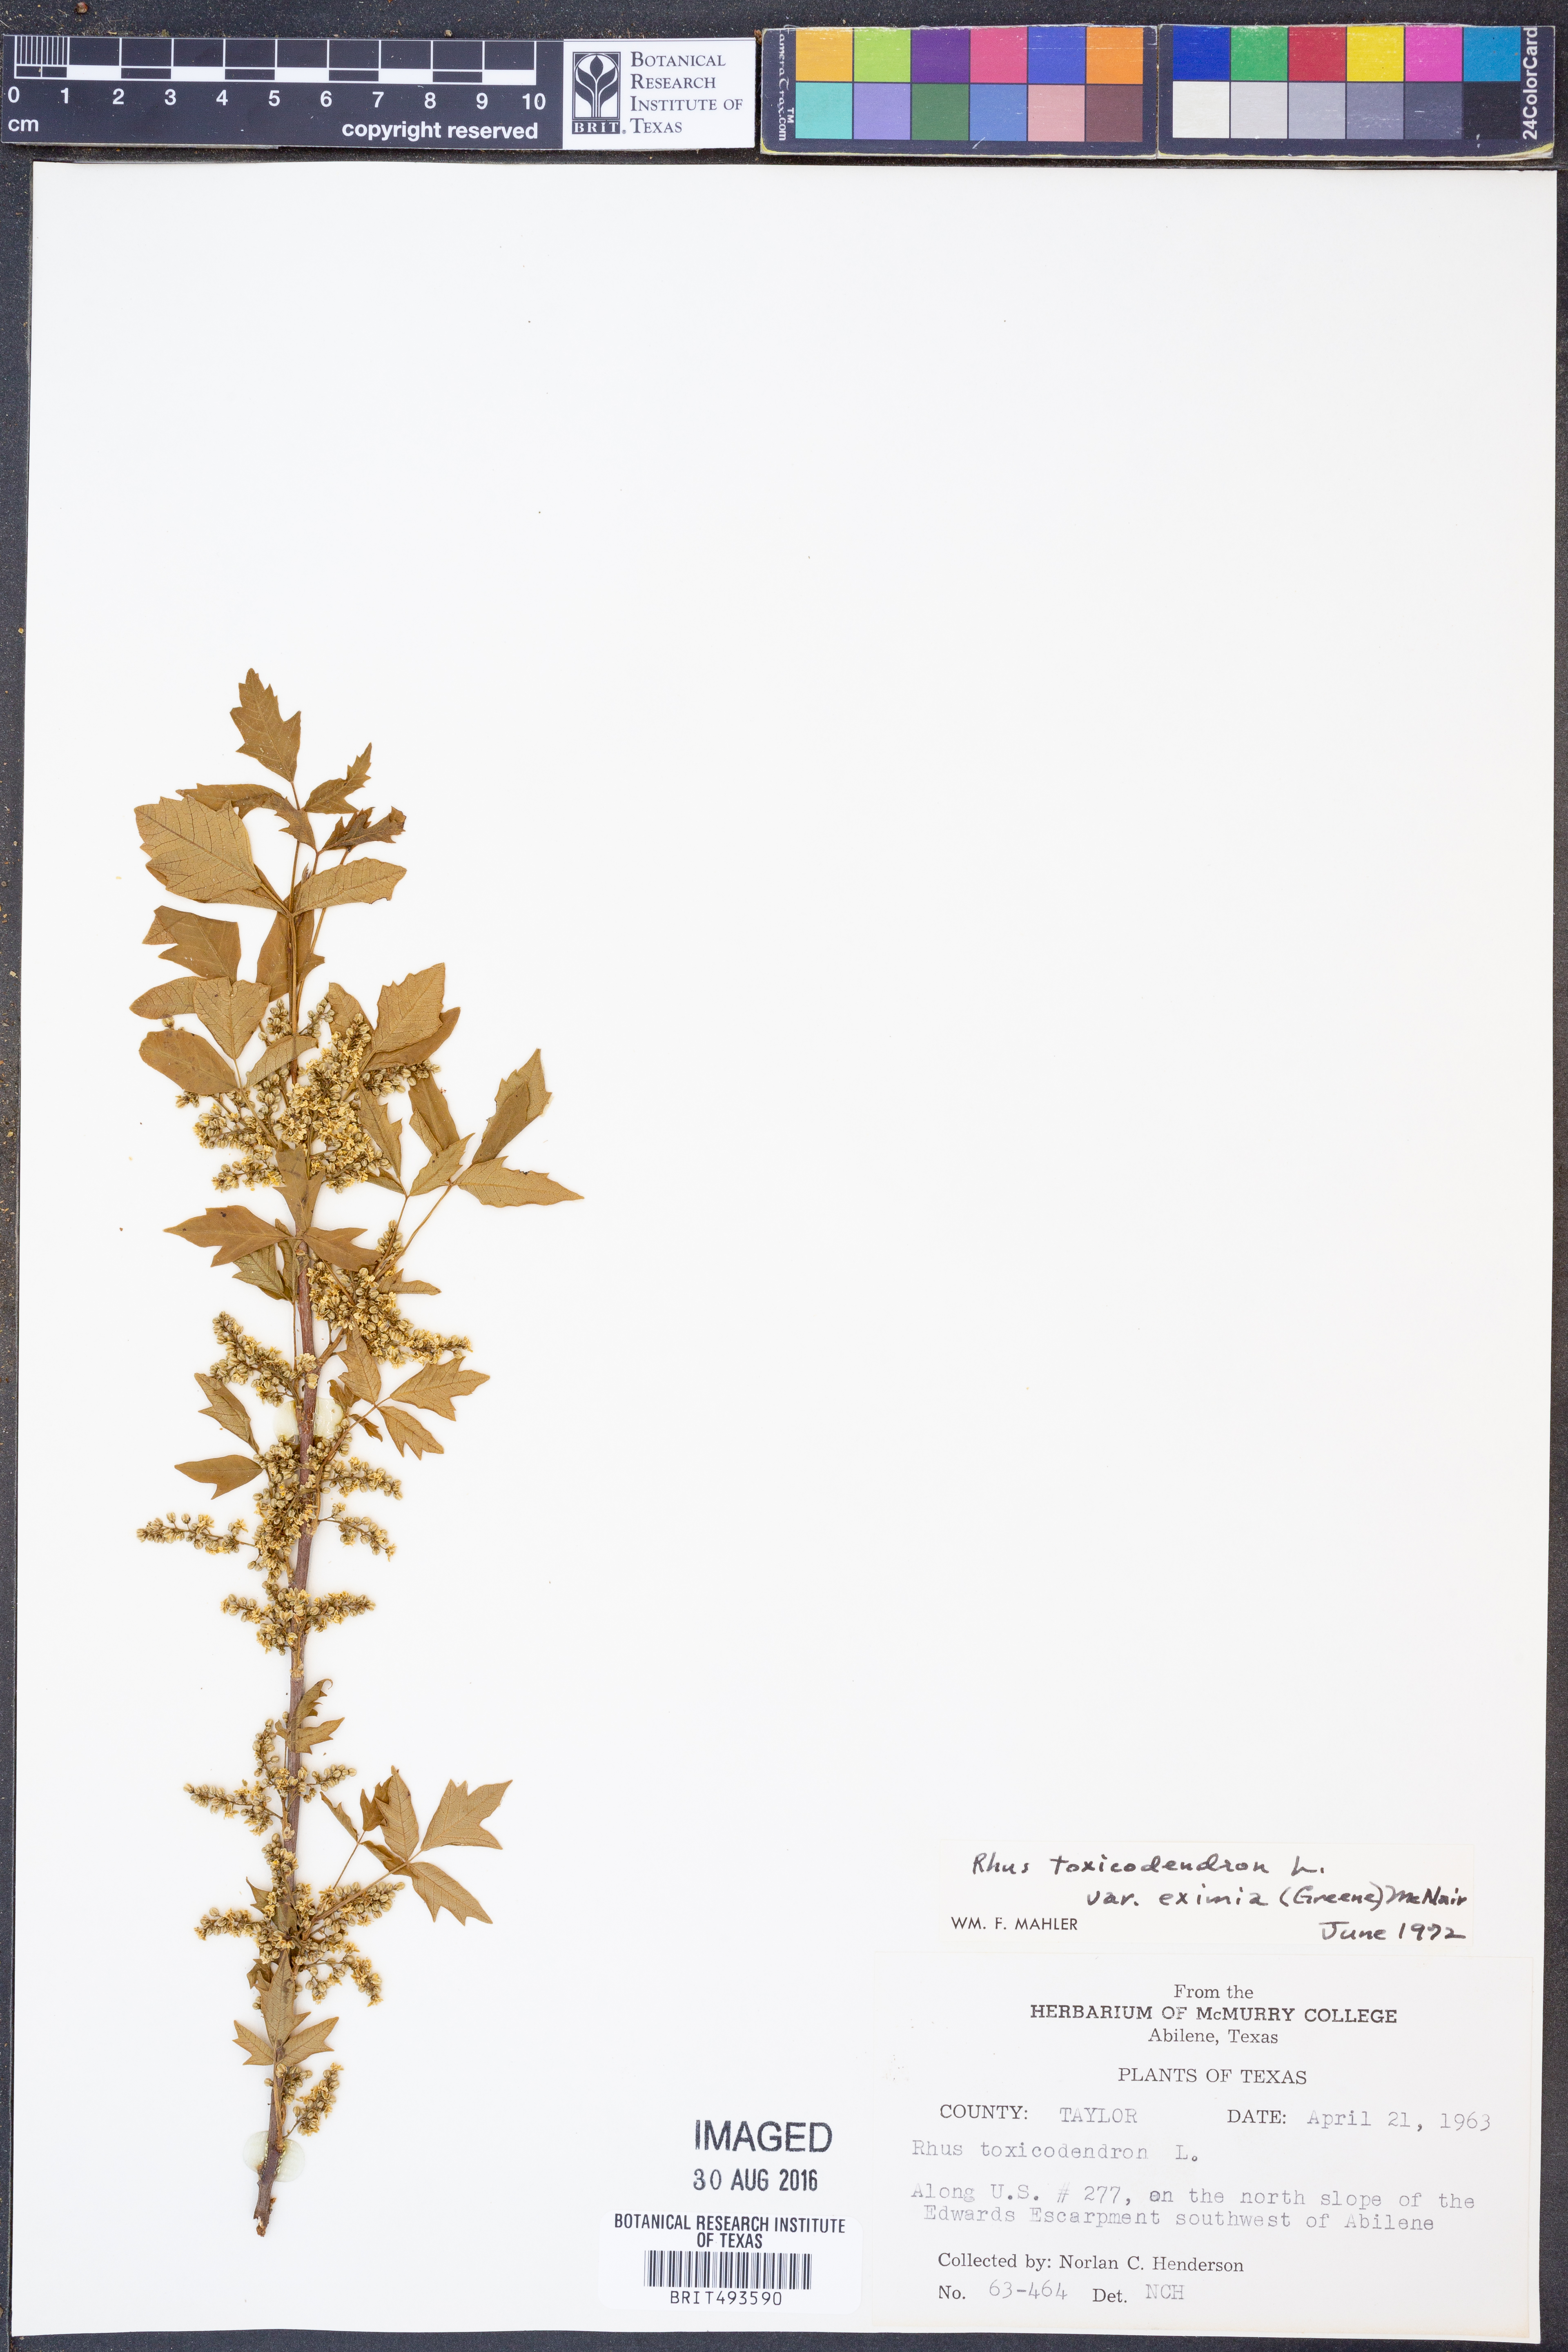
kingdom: Plantae
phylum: Tracheophyta
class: Magnoliopsida
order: Sapindales
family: Anacardiaceae
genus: Toxicodendron
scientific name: Toxicodendron radicans
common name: Poison ivy
